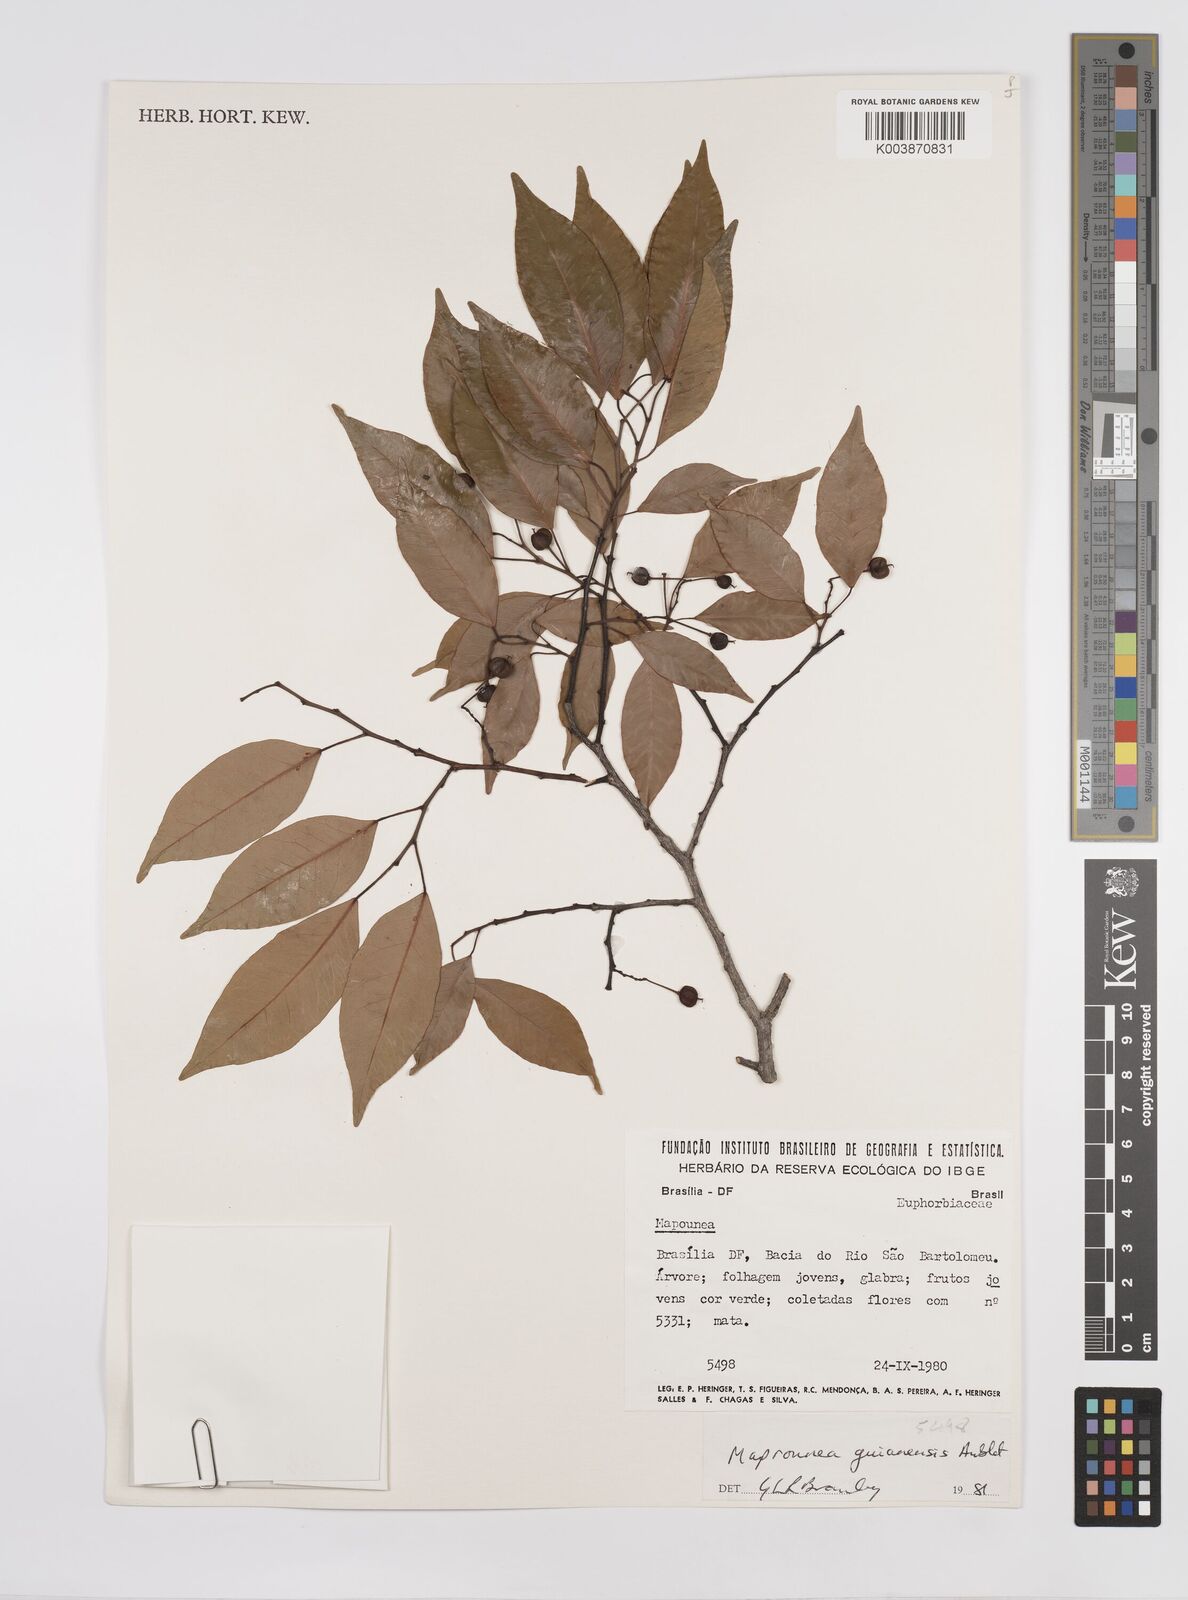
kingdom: Plantae
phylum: Tracheophyta
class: Magnoliopsida
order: Malpighiales
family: Euphorbiaceae
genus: Maprounea
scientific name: Maprounea guianensis
